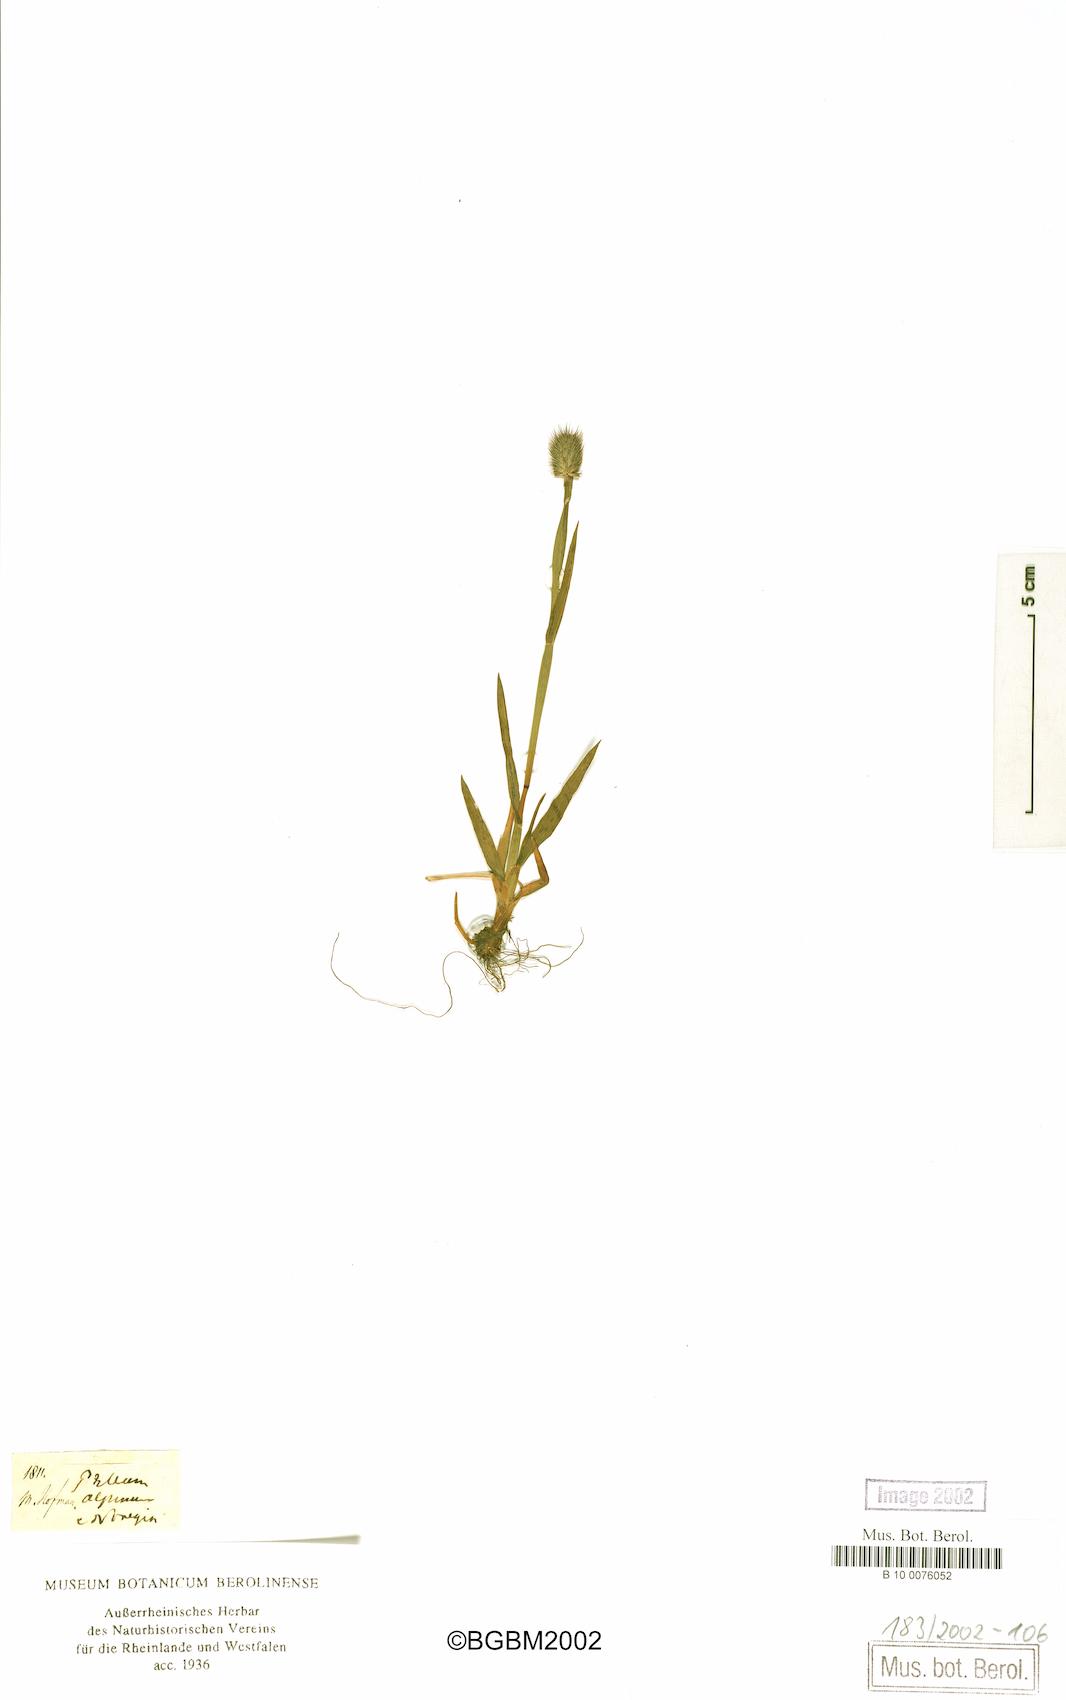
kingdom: Plantae
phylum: Tracheophyta
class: Liliopsida
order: Poales
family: Poaceae
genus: Phleum
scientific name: Phleum alpinum
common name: Alpine cat's-tail
